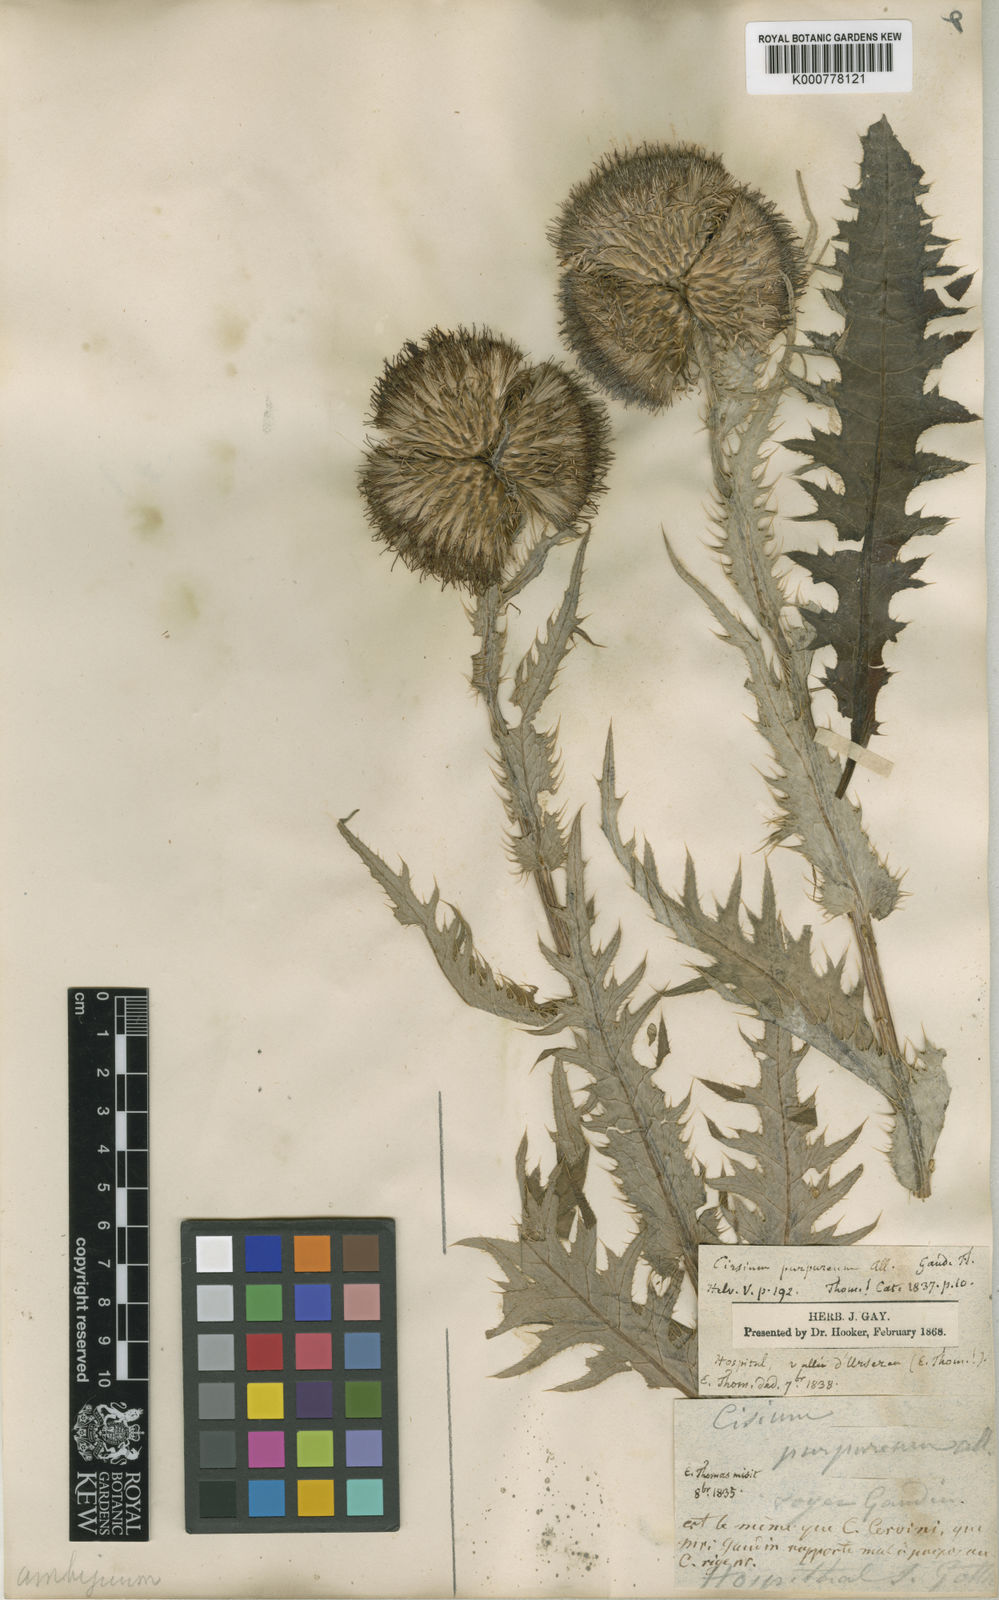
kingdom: Plantae
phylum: Tracheophyta
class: Magnoliopsida
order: Asterales
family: Asteraceae
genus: Cirsium
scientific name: Cirsium spinosissimum
